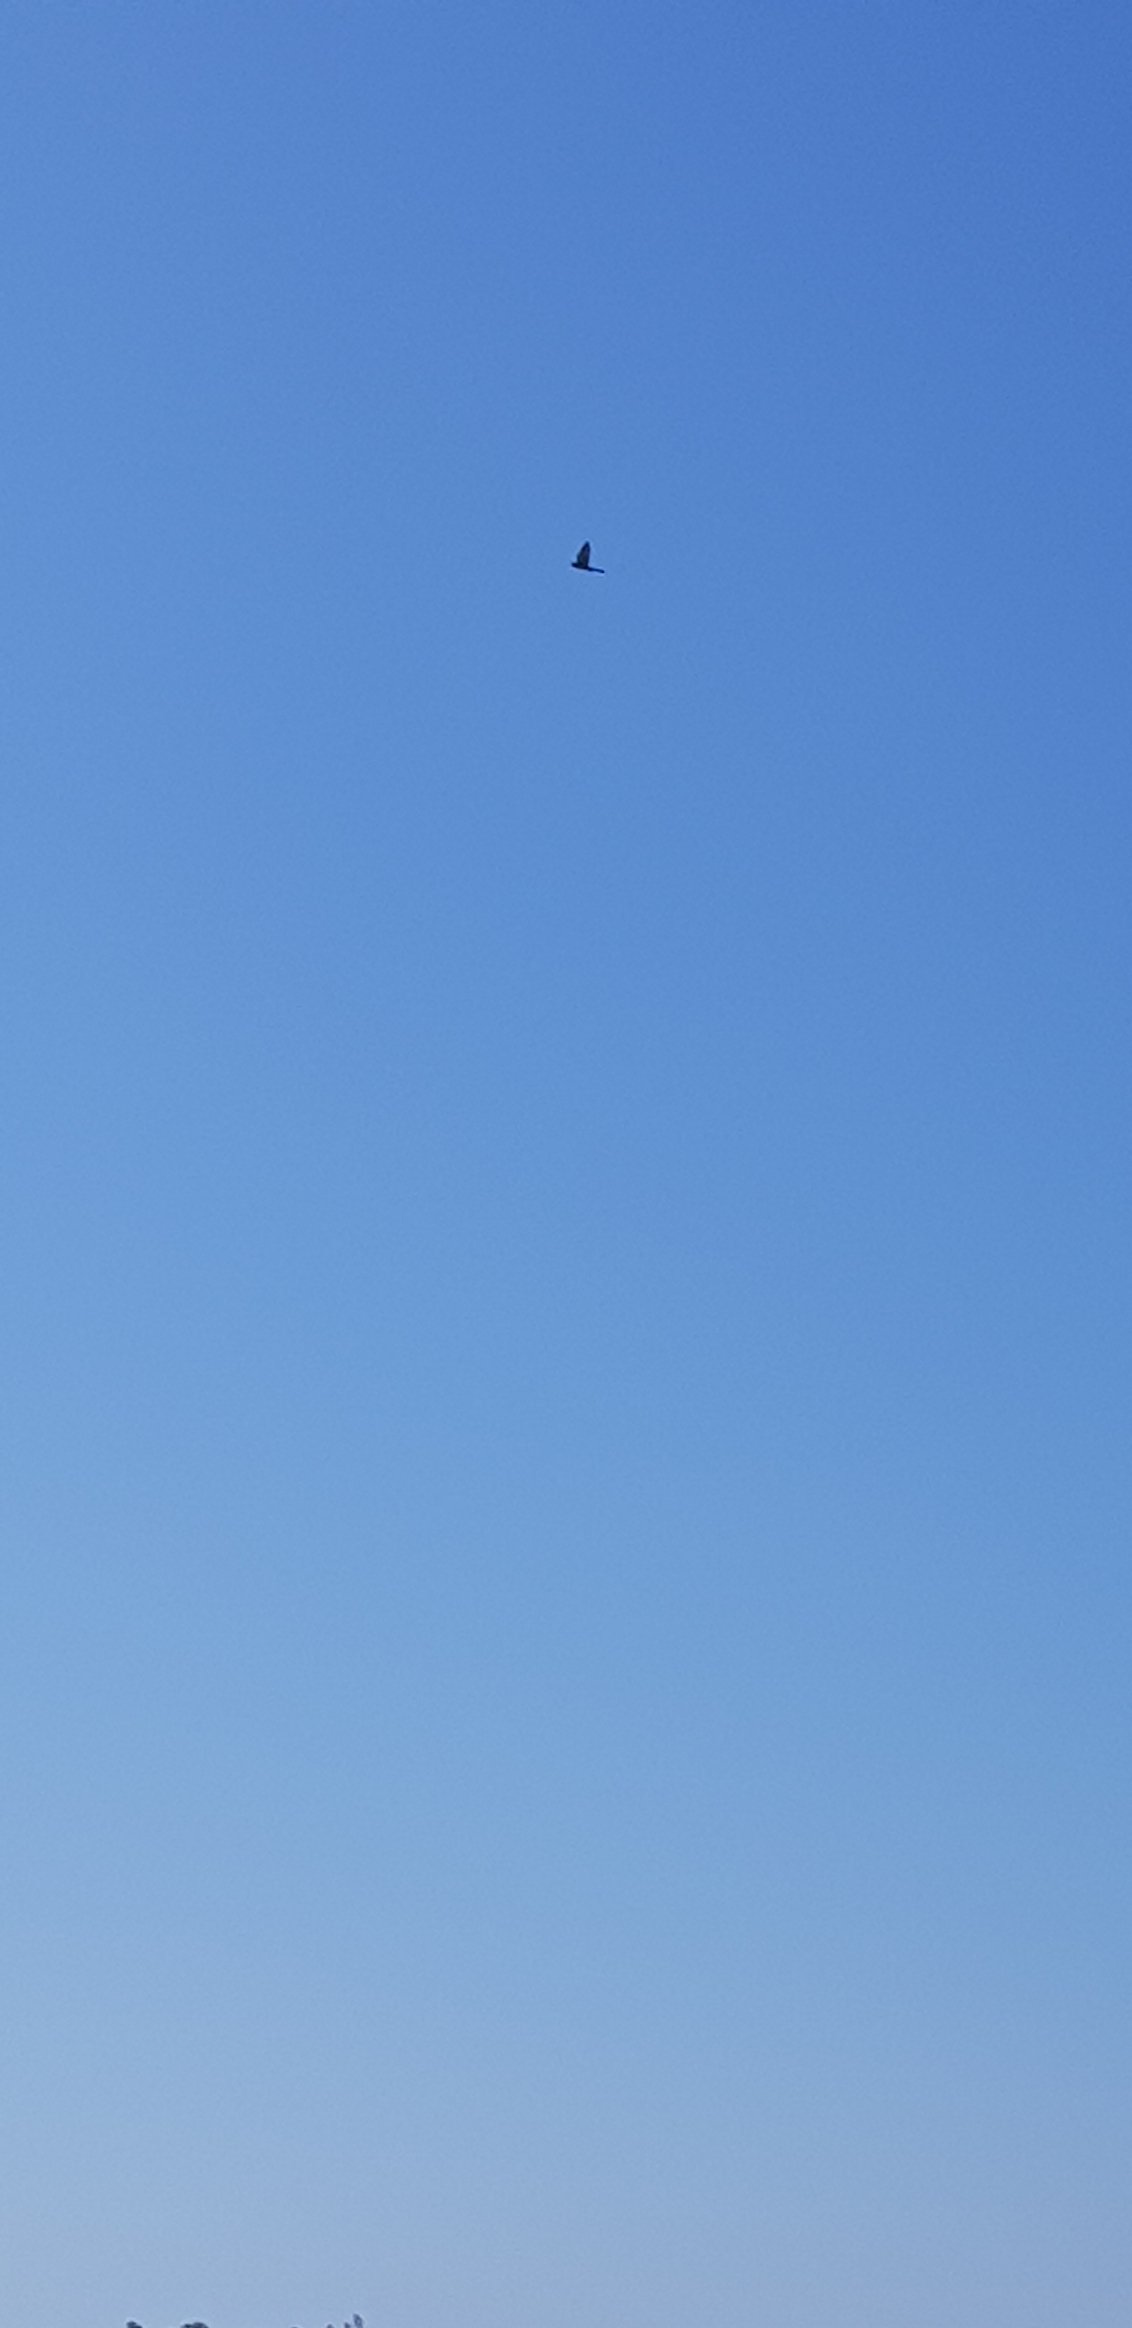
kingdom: Animalia
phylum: Chordata
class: Aves
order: Falconiformes
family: Falconidae
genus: Falco
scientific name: Falco tinnunculus
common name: Tårnfalk
